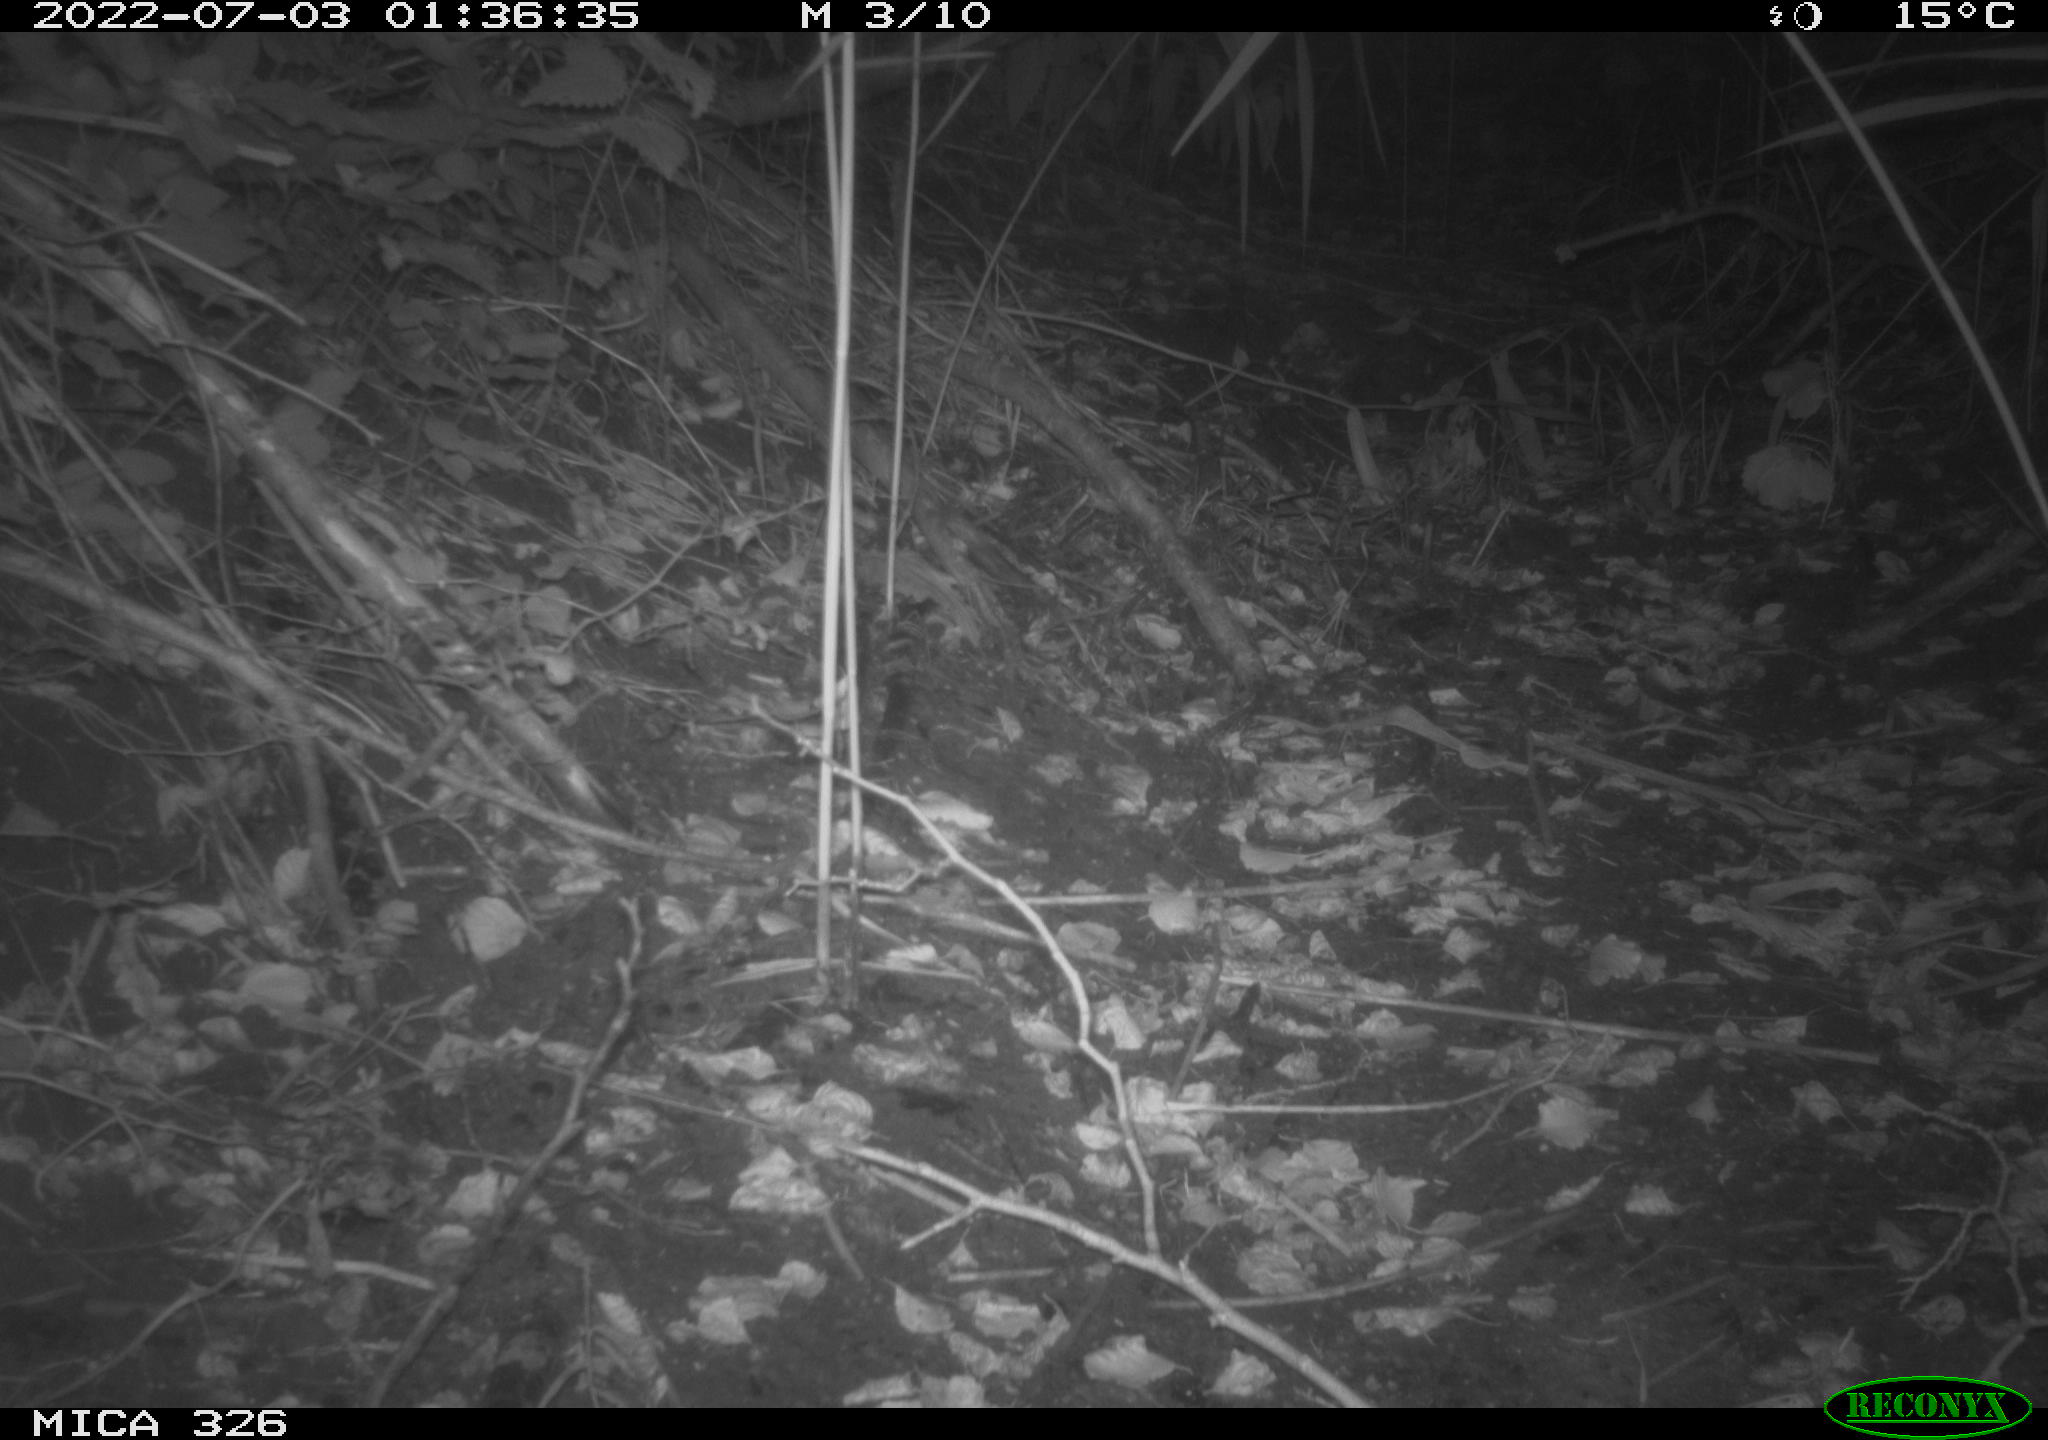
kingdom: Animalia
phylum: Chordata
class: Mammalia
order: Carnivora
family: Mustelidae
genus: Martes
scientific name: Martes
